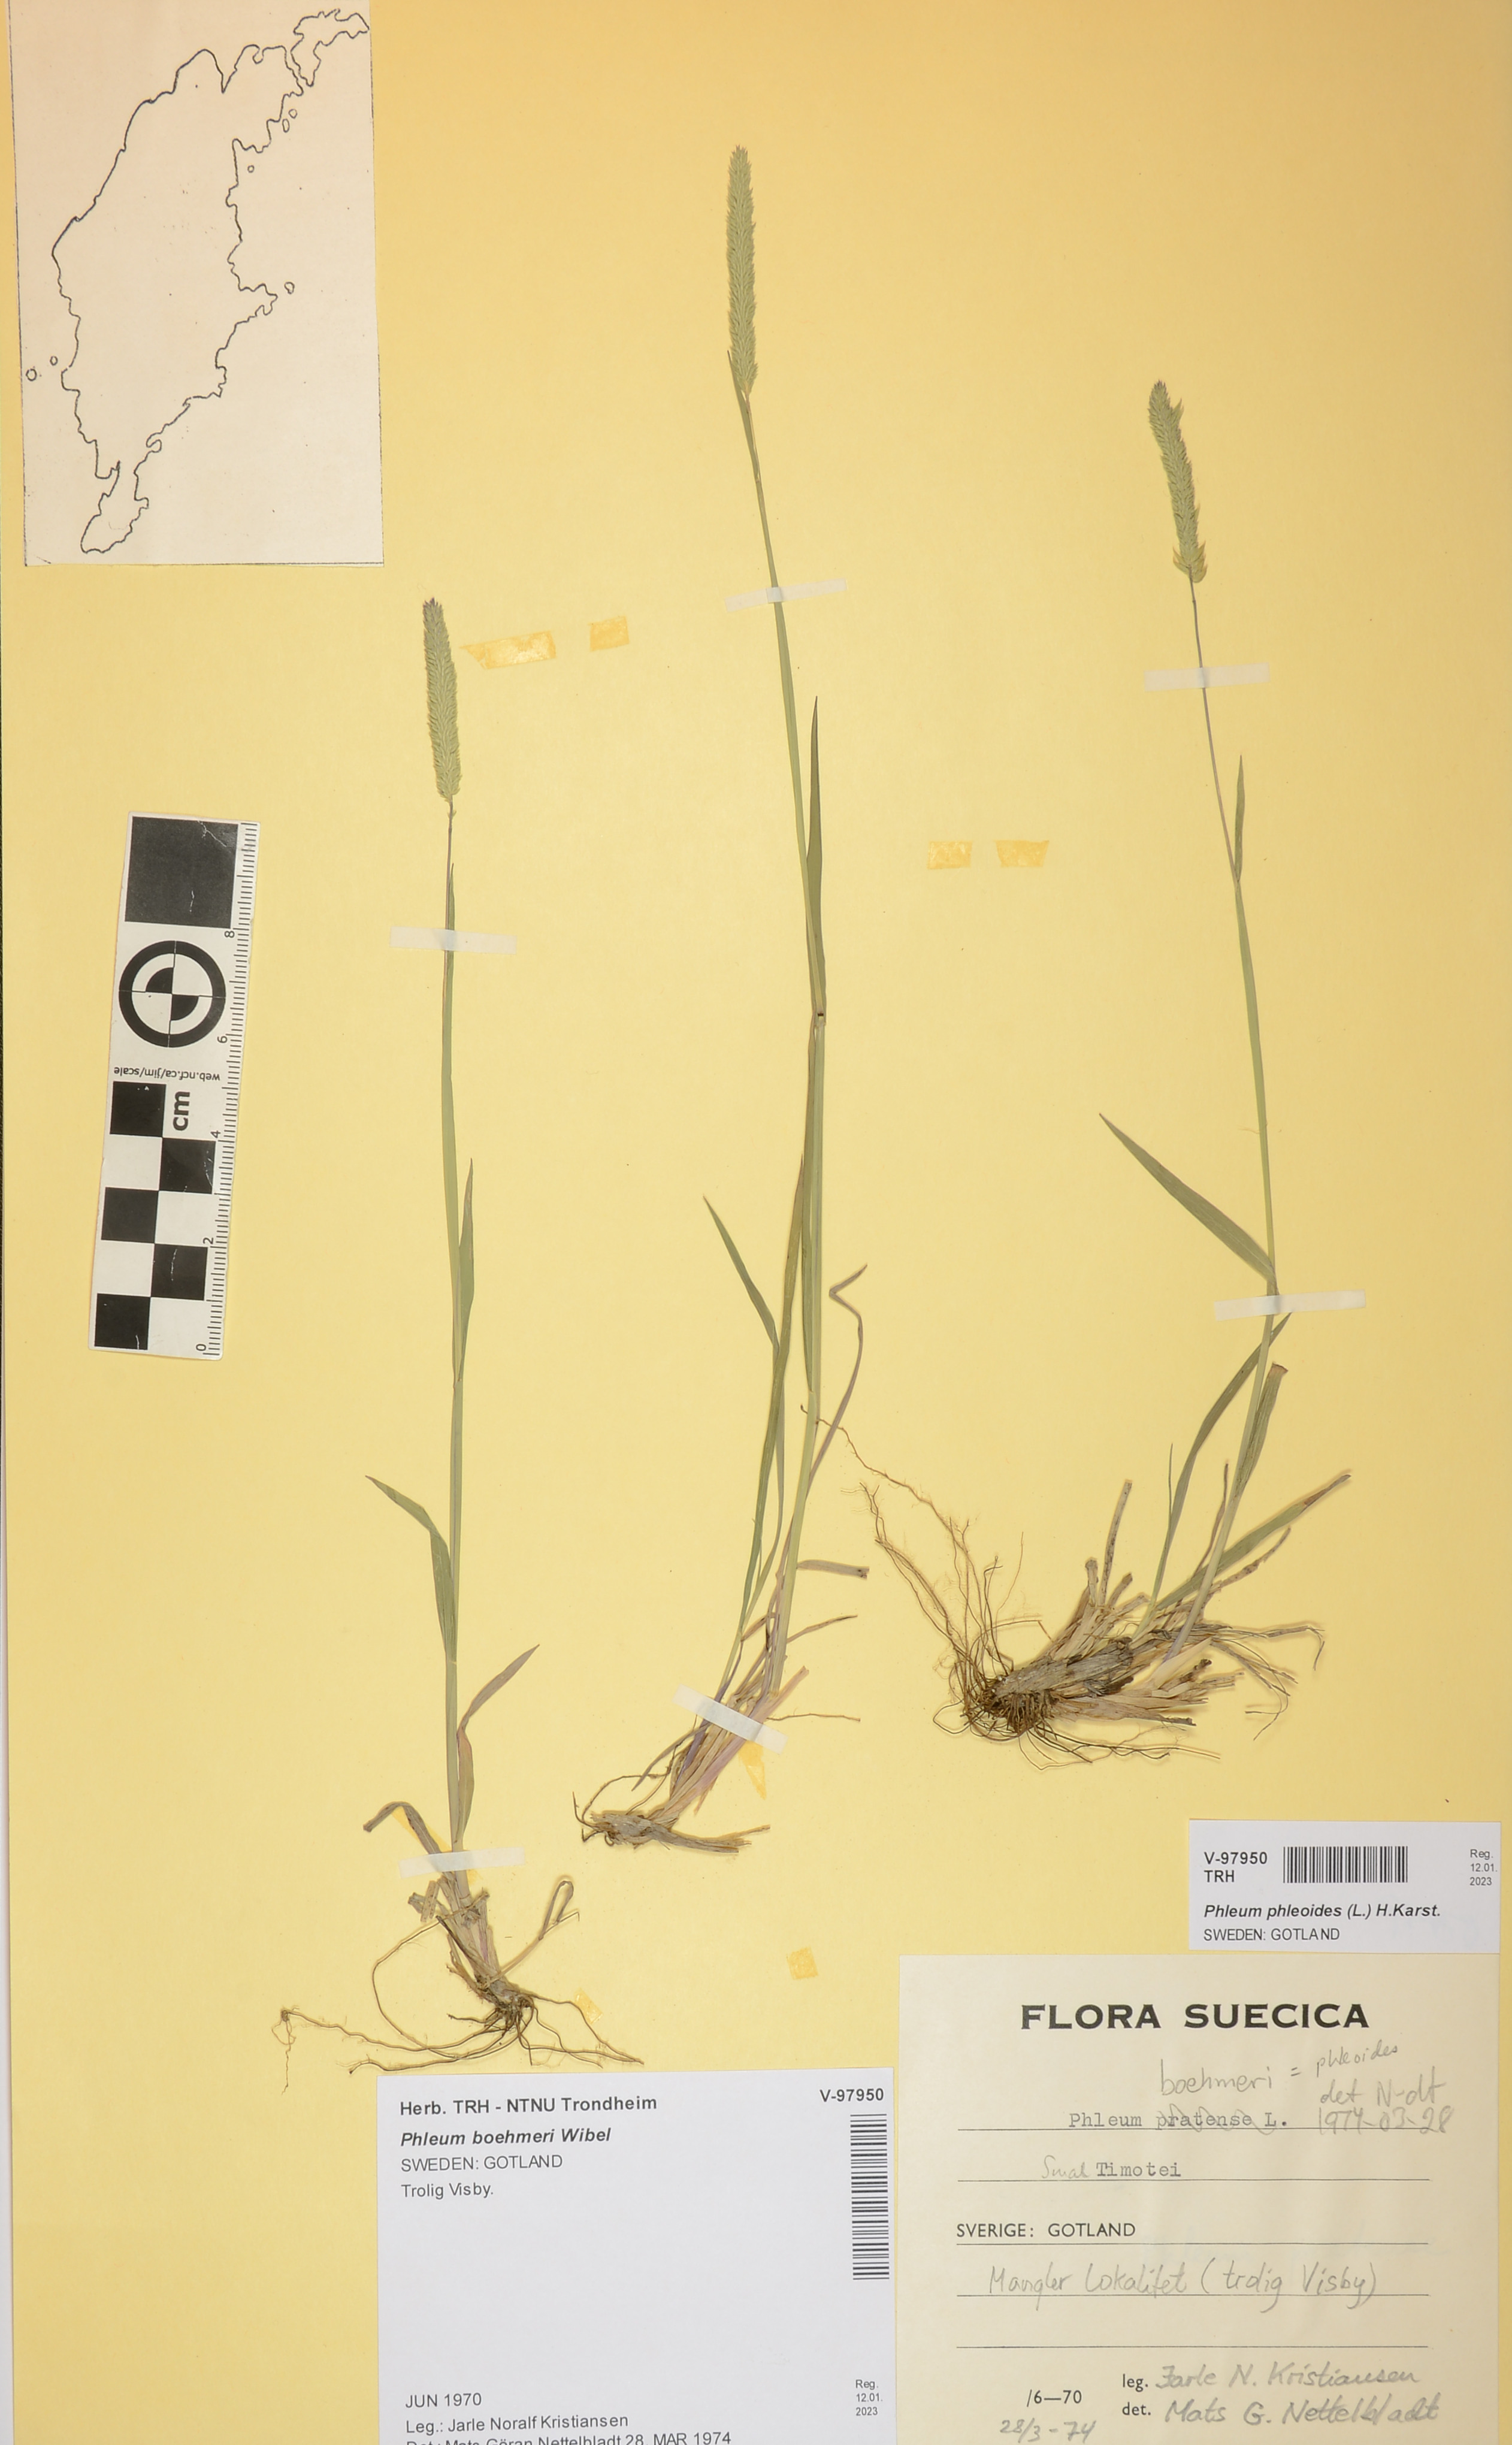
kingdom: Plantae
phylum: Tracheophyta
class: Liliopsida
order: Poales
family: Poaceae
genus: Phleum
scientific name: Phleum phleoides
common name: Purple-stem cat's-tail
